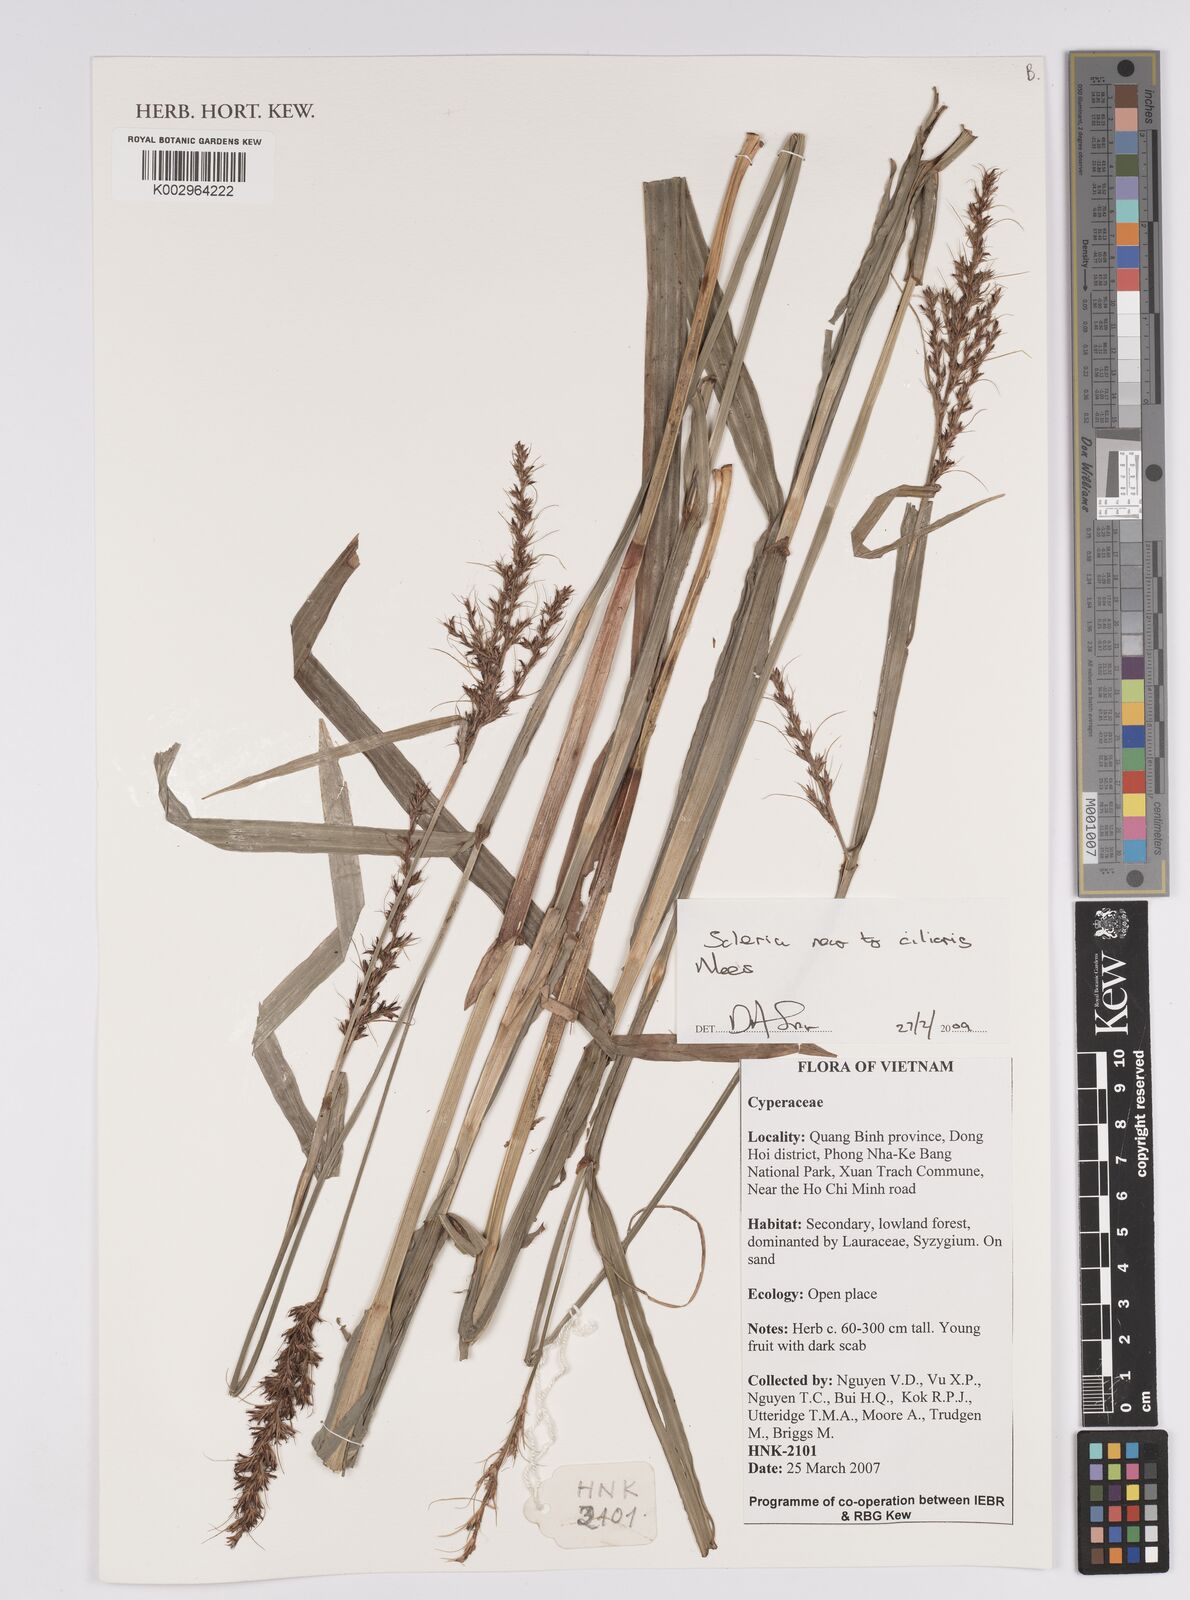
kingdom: Plantae
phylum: Tracheophyta
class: Liliopsida
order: Poales
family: Cyperaceae
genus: Scleria
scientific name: Scleria ciliaris
